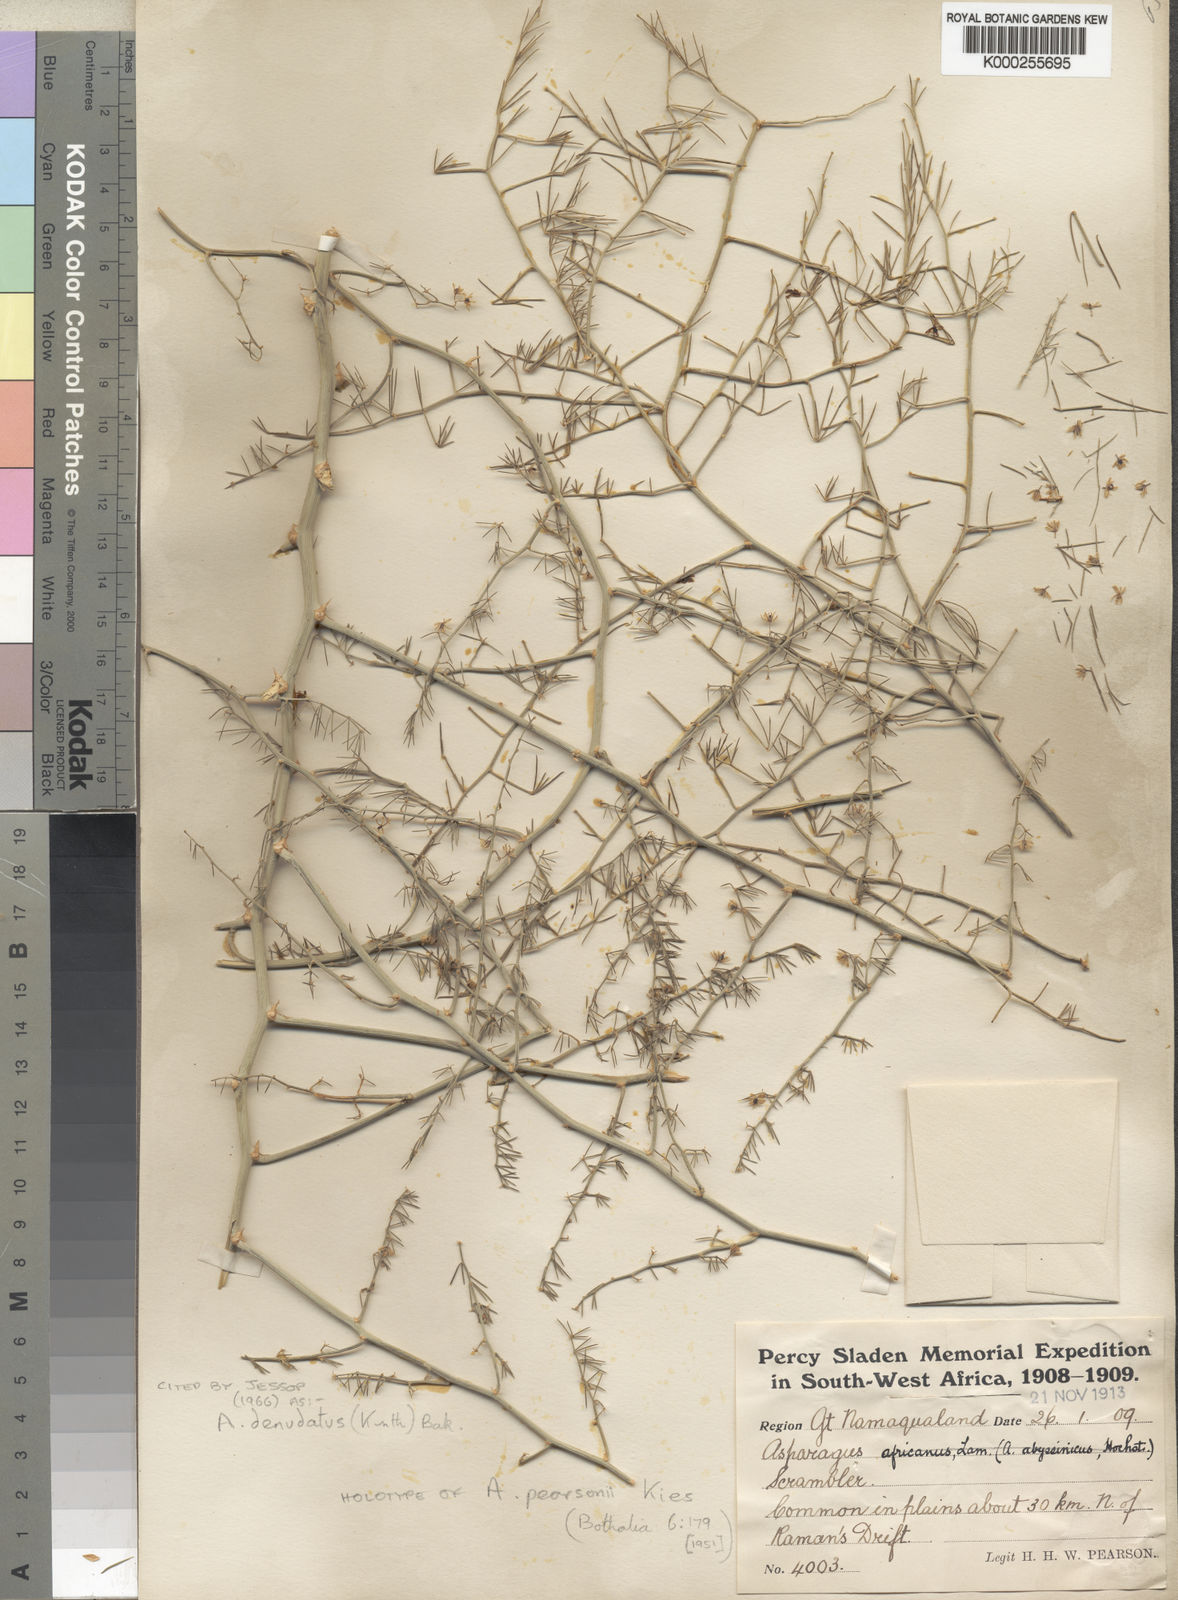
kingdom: Plantae
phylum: Tracheophyta
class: Liliopsida
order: Asparagales
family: Asparagaceae
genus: Asparagus
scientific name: Asparagus denudatus
